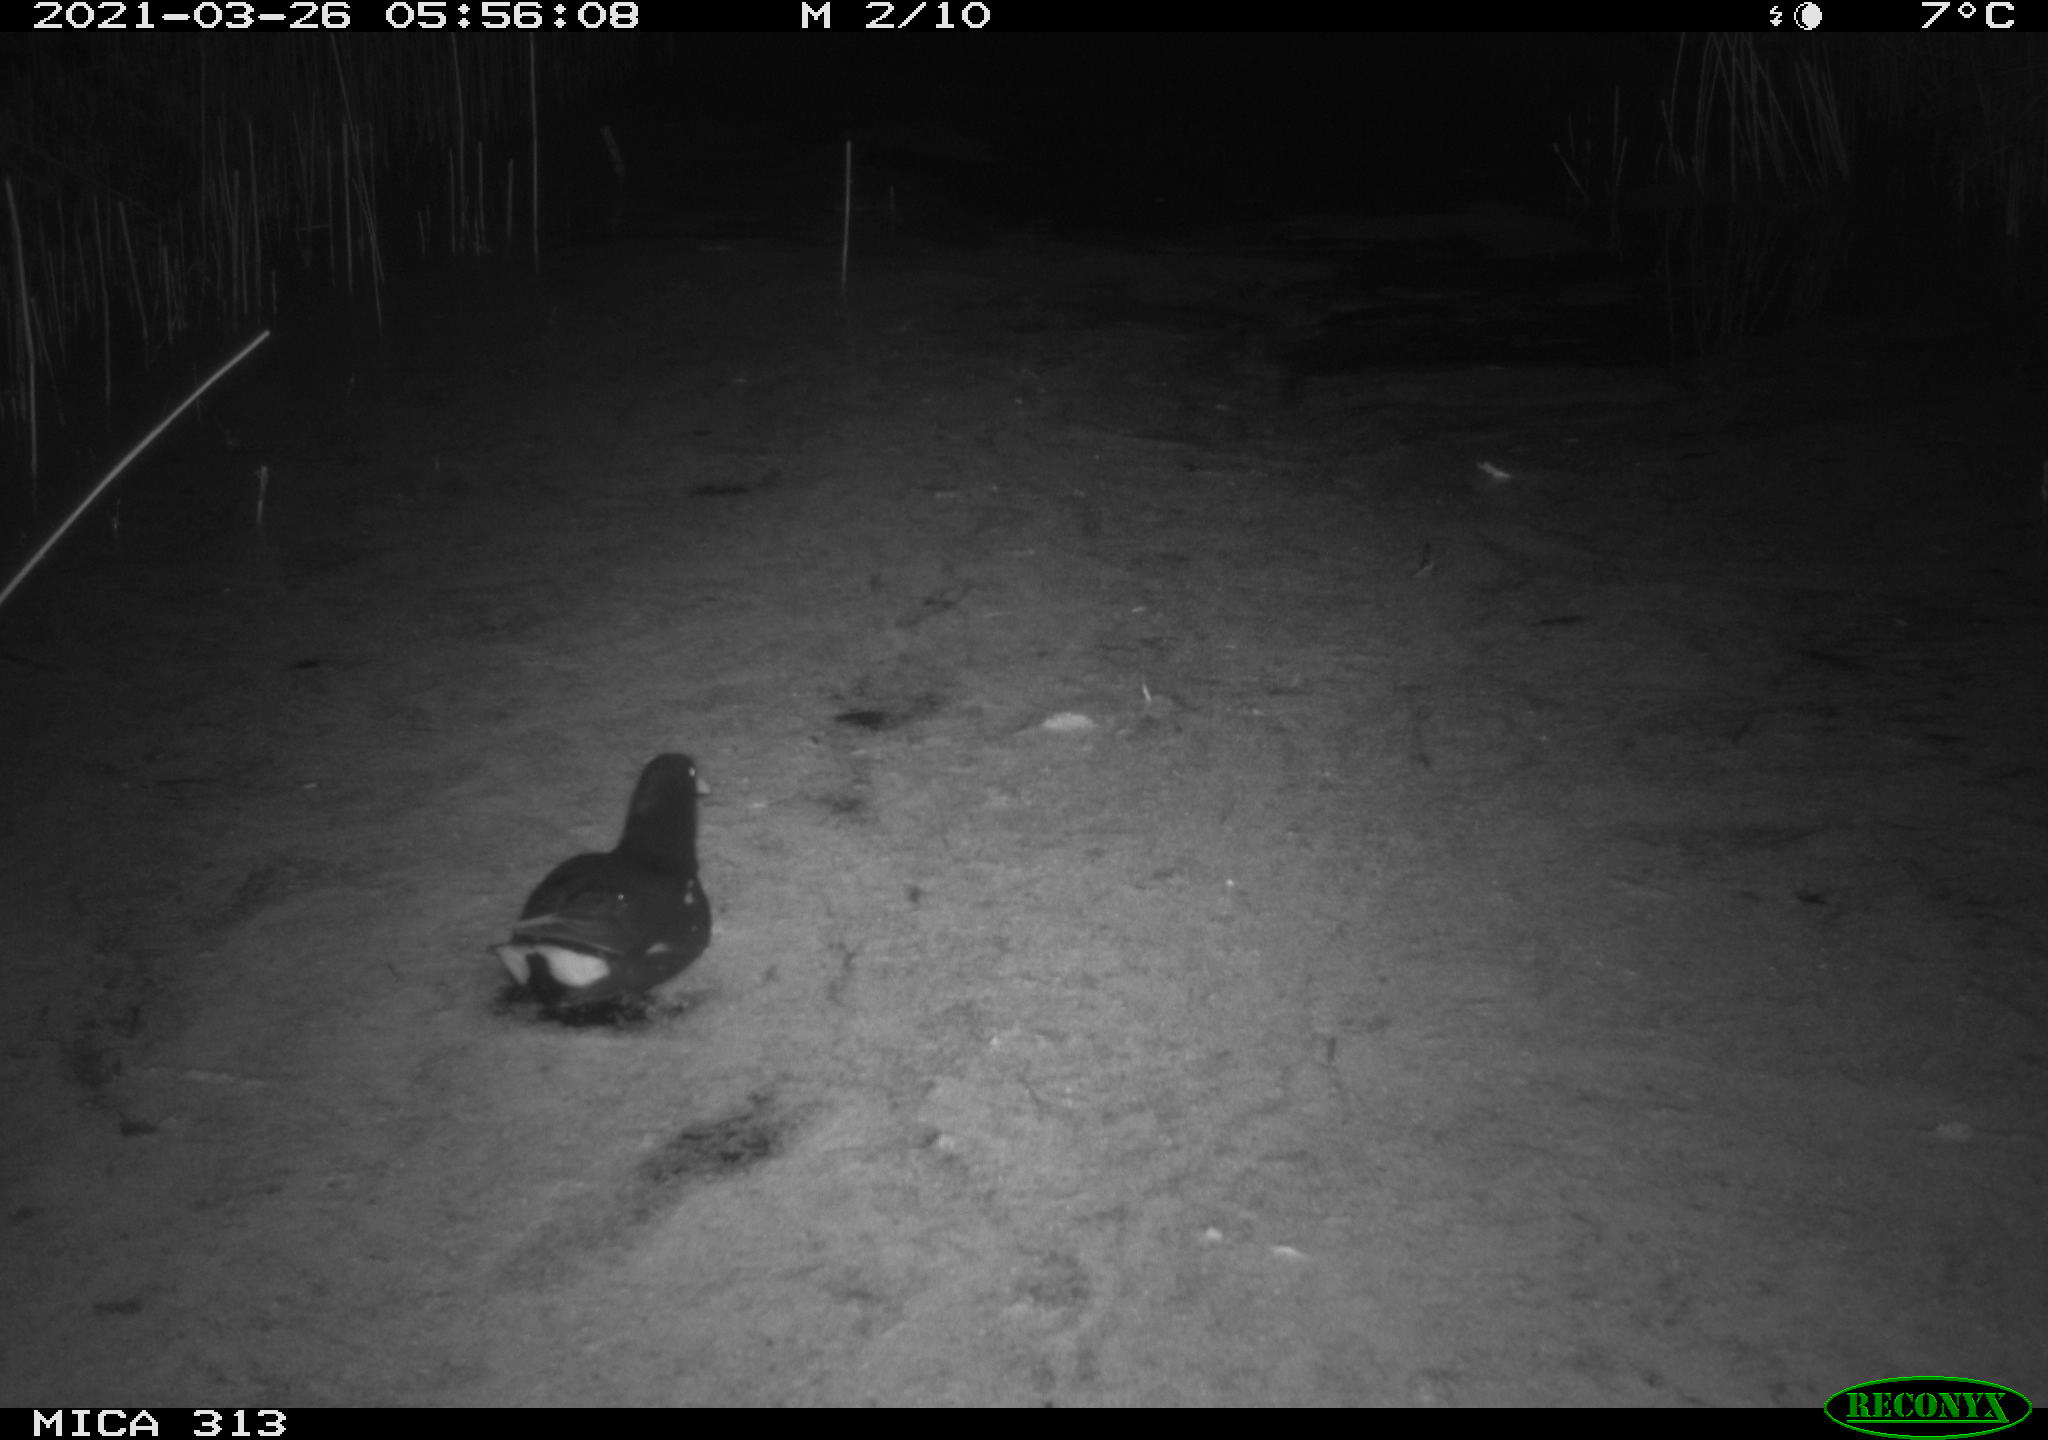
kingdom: Animalia
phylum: Chordata
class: Aves
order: Gruiformes
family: Rallidae
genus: Gallinula
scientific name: Gallinula chloropus
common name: Common moorhen
